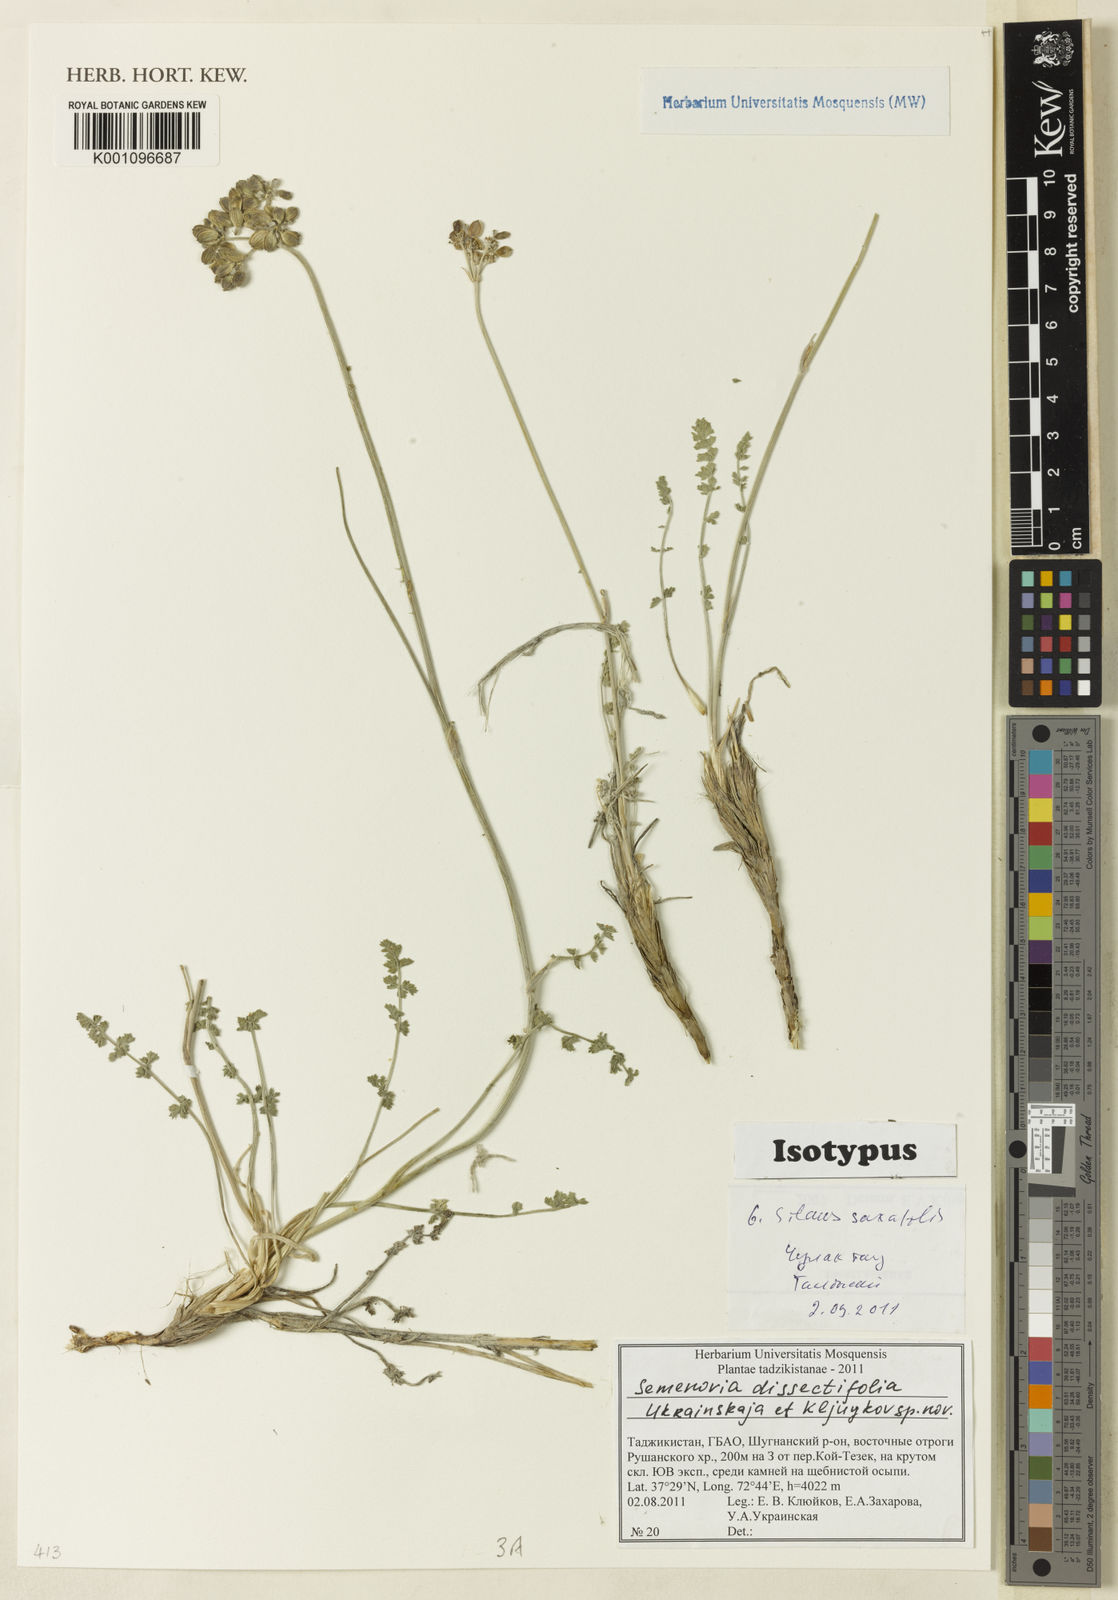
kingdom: Plantae
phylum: Tracheophyta
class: Magnoliopsida
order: Apiales
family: Apiaceae
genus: Semenovia
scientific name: Semenovia dissectifolia
